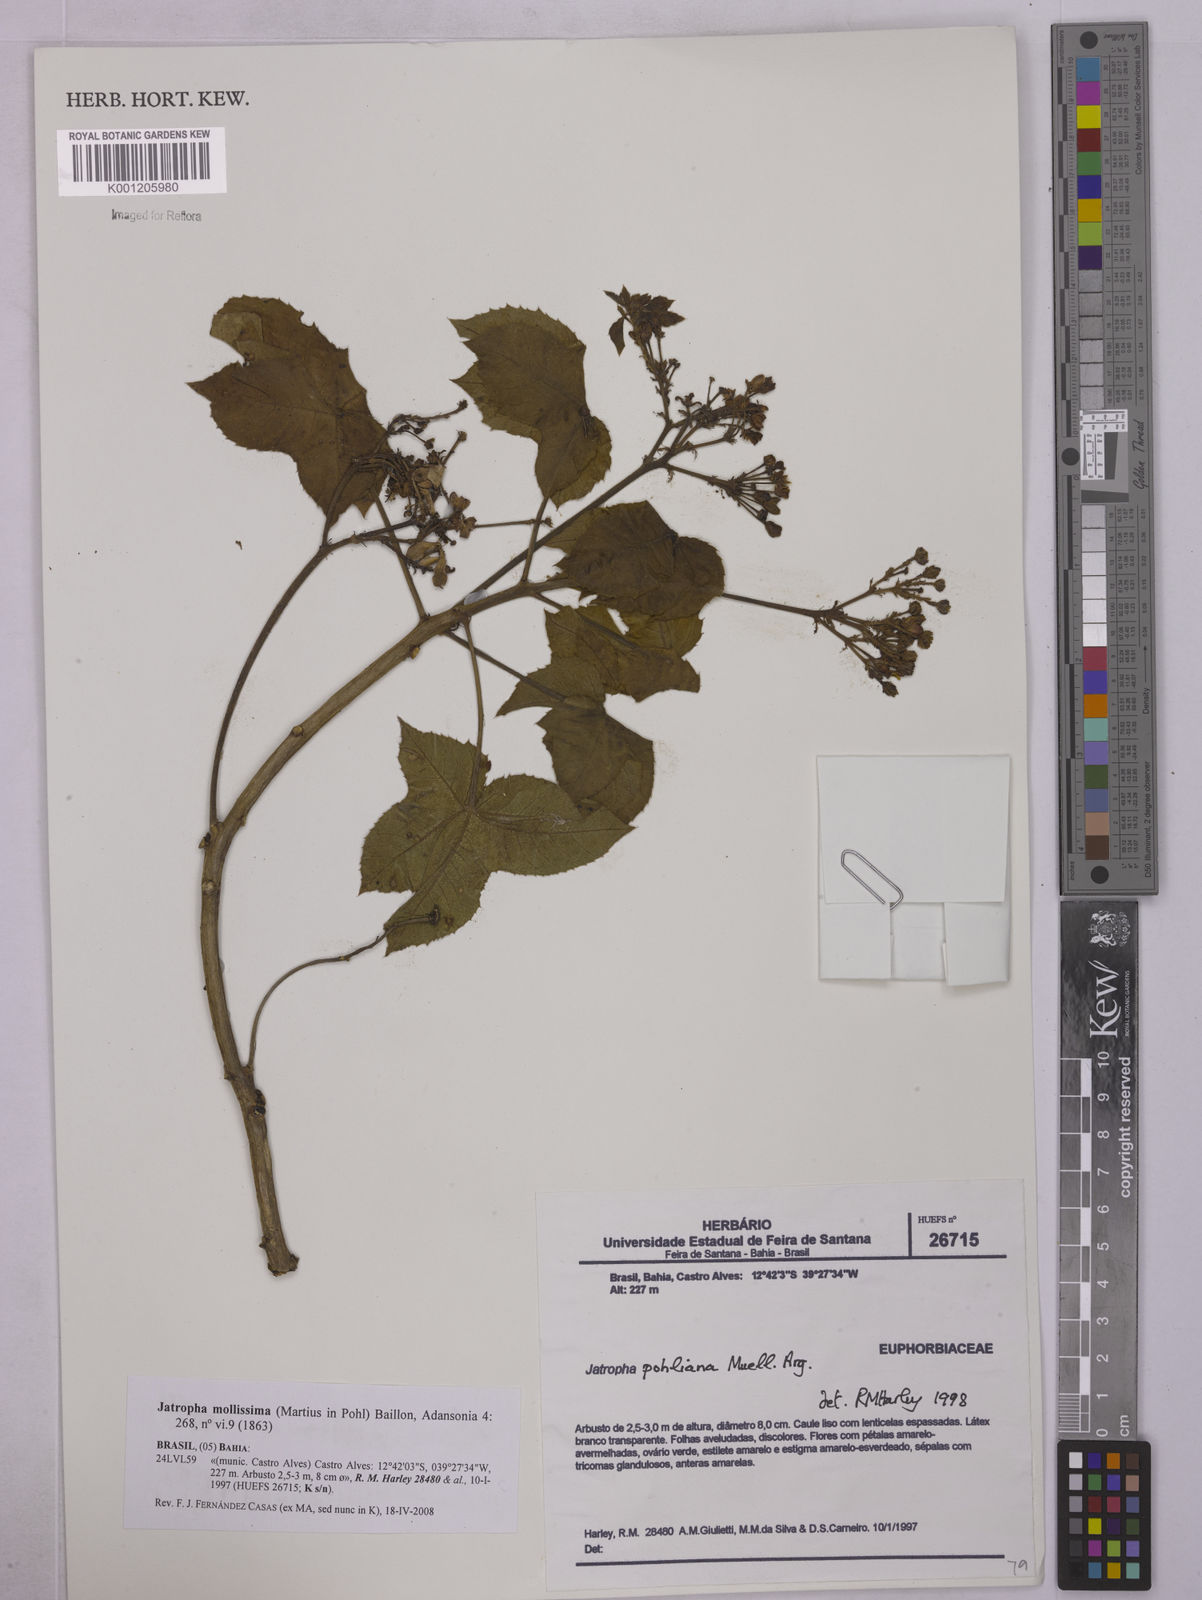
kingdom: Plantae
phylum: Tracheophyta
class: Magnoliopsida
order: Malpighiales
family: Euphorbiaceae
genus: Jatropha
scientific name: Jatropha mollissima
